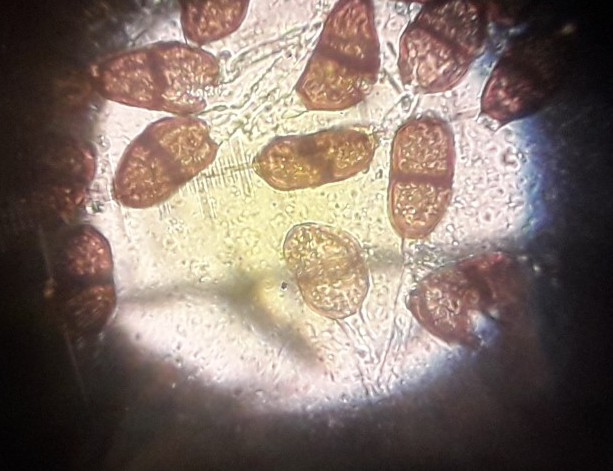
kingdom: Fungi
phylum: Basidiomycota
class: Pucciniomycetes
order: Pucciniales
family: Pucciniaceae
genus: Puccinia
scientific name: Puccinia
